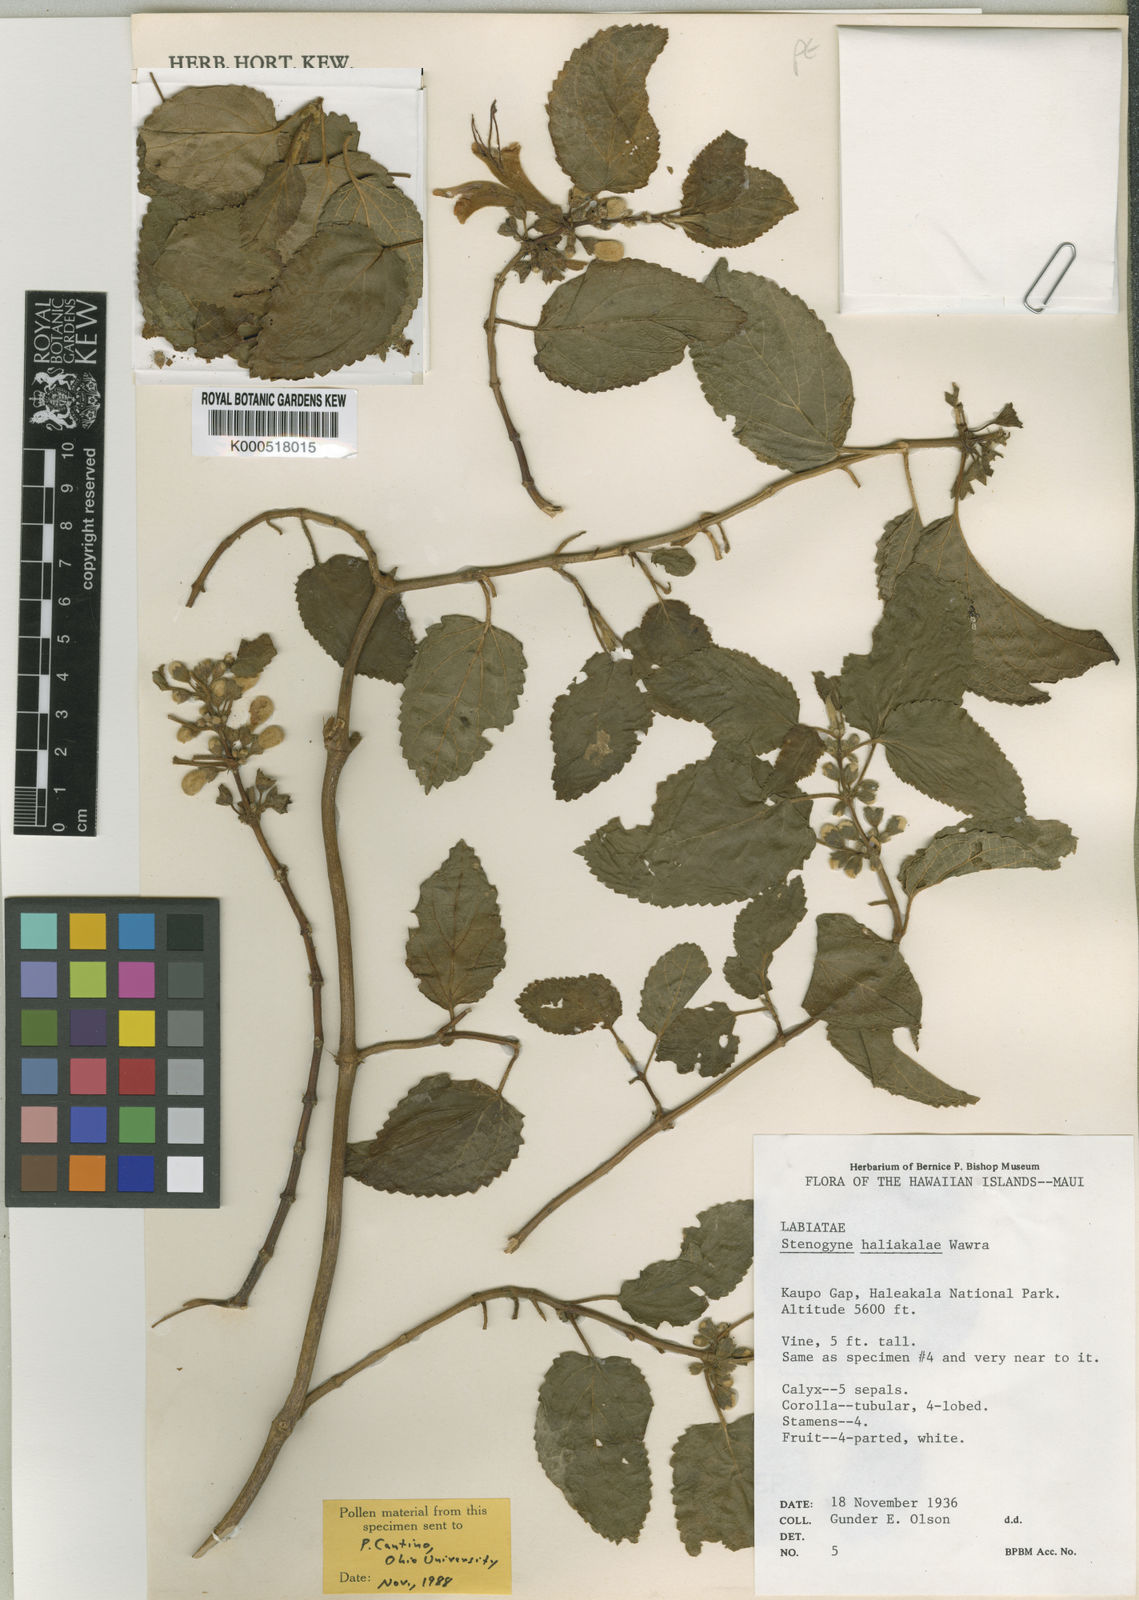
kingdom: Plantae
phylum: Tracheophyta
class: Magnoliopsida
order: Lamiales
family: Lamiaceae
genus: Stenogyne
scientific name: Stenogyne haliakalae
